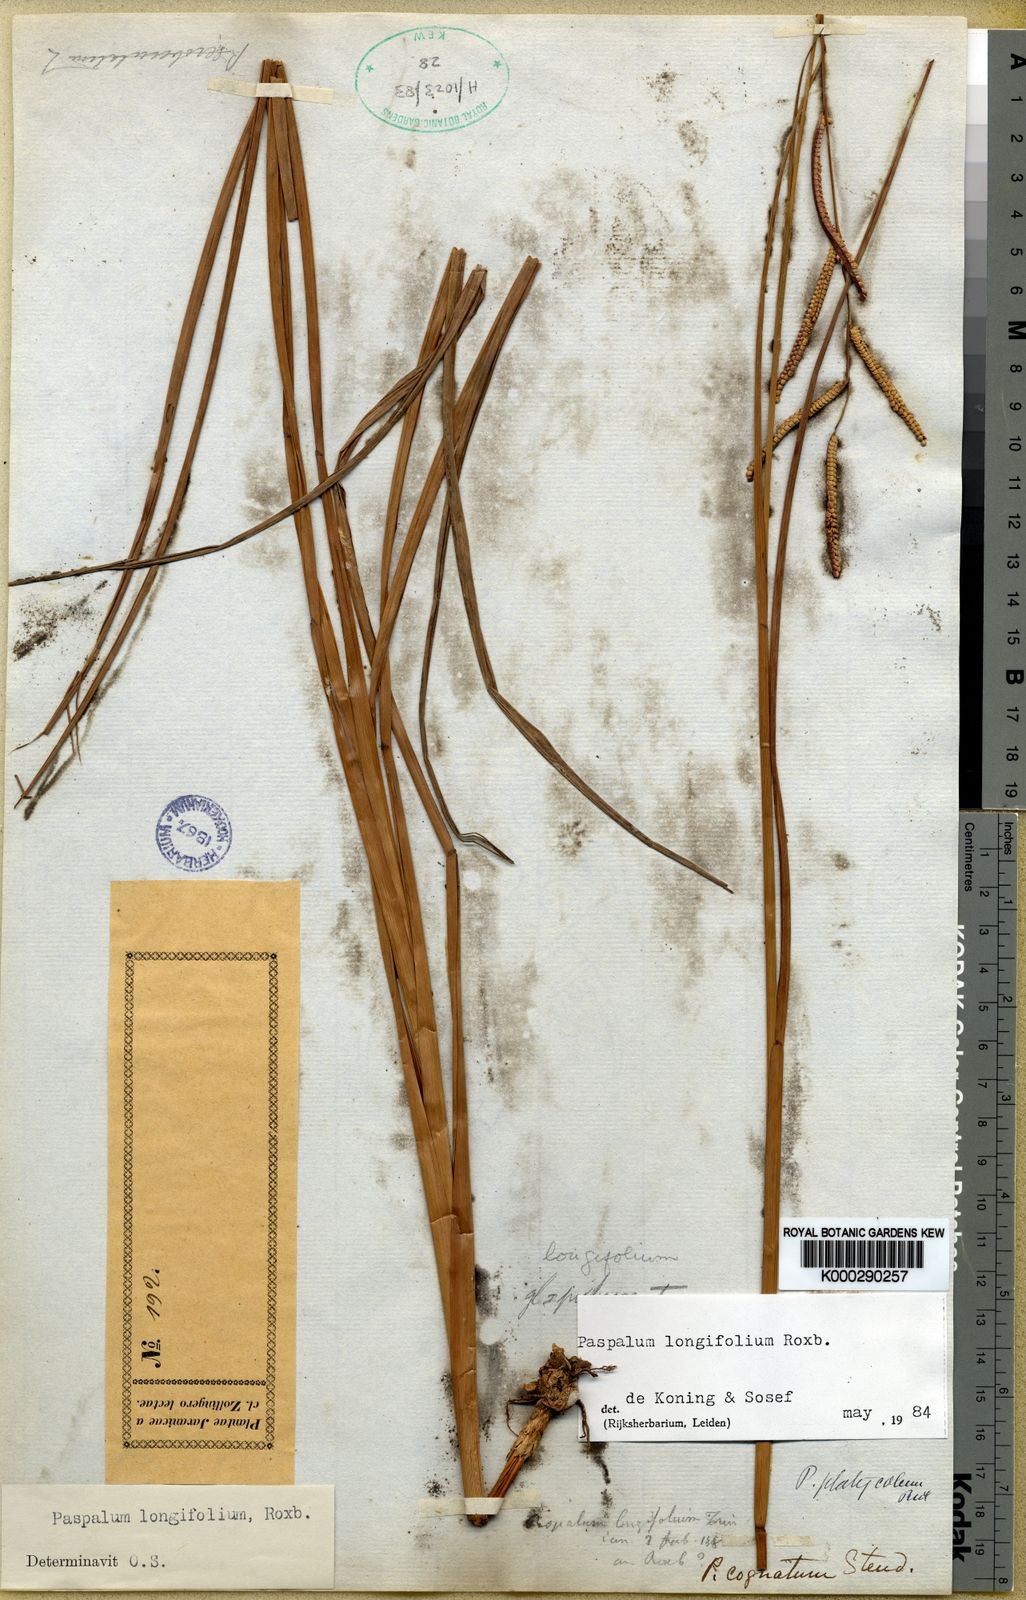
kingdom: Plantae
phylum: Tracheophyta
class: Liliopsida
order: Poales
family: Poaceae
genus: Paspalum
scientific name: Paspalum sumatrense
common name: Long-leaved paspalum
